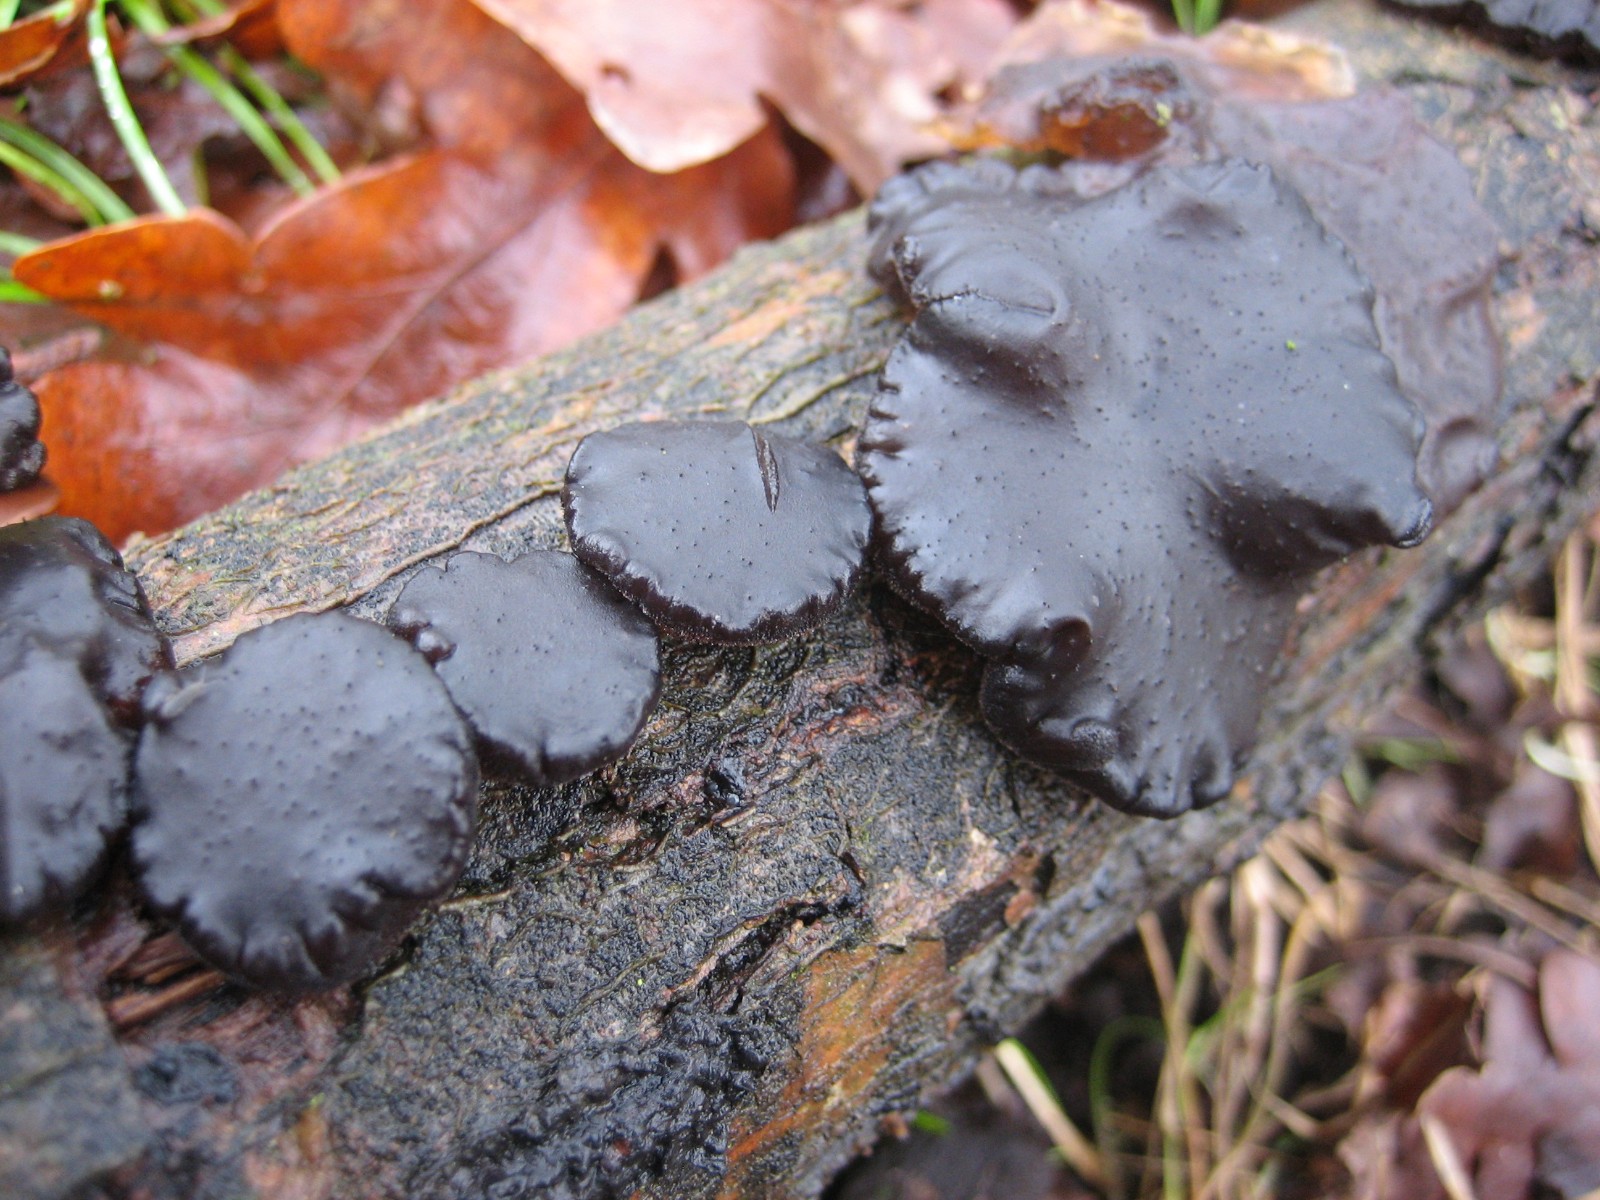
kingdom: Fungi
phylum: Basidiomycota
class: Agaricomycetes
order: Auriculariales
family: Auriculariaceae
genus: Exidia
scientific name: Exidia glandulosa
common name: ege-bævretop
